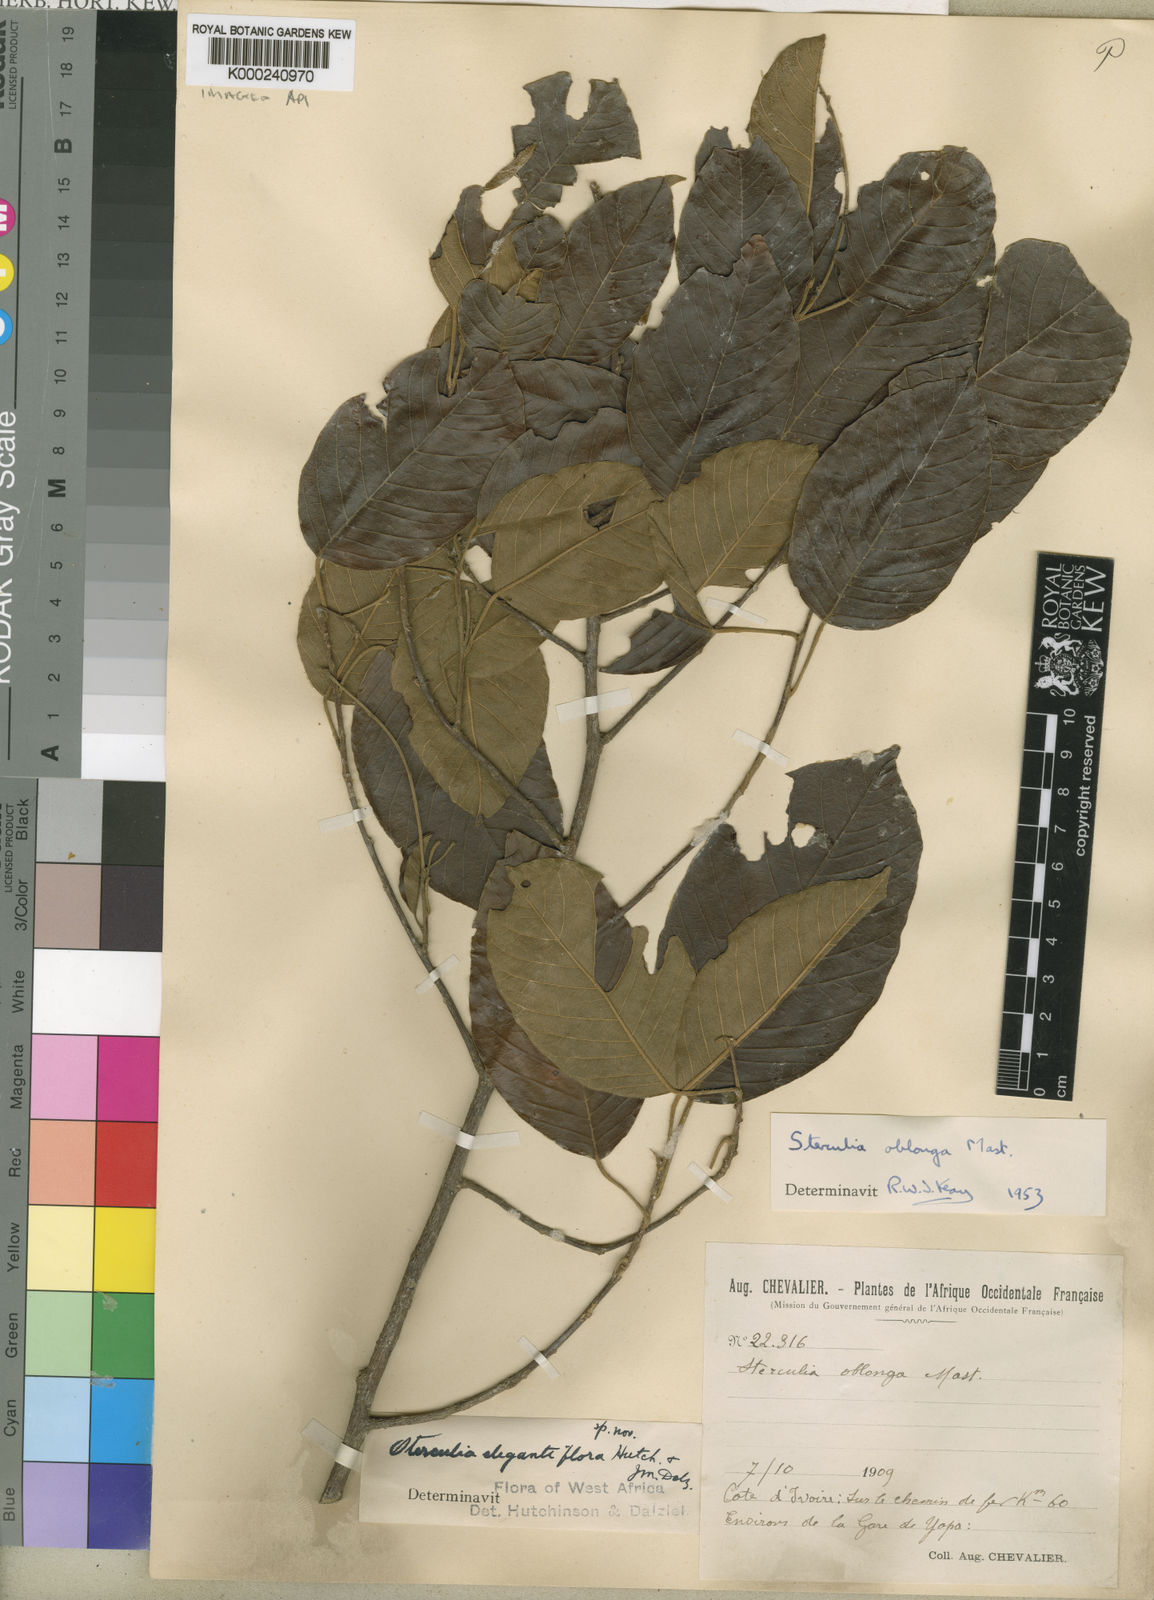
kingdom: Plantae
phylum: Tracheophyta
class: Magnoliopsida
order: Malvales
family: Malvaceae
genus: Sterculia
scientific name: Sterculia oblonga
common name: Yellow sterculia
